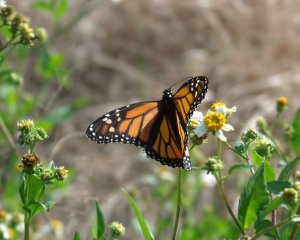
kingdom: Animalia
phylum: Arthropoda
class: Insecta
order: Lepidoptera
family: Nymphalidae
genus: Danaus
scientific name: Danaus plexippus
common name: Monarch
